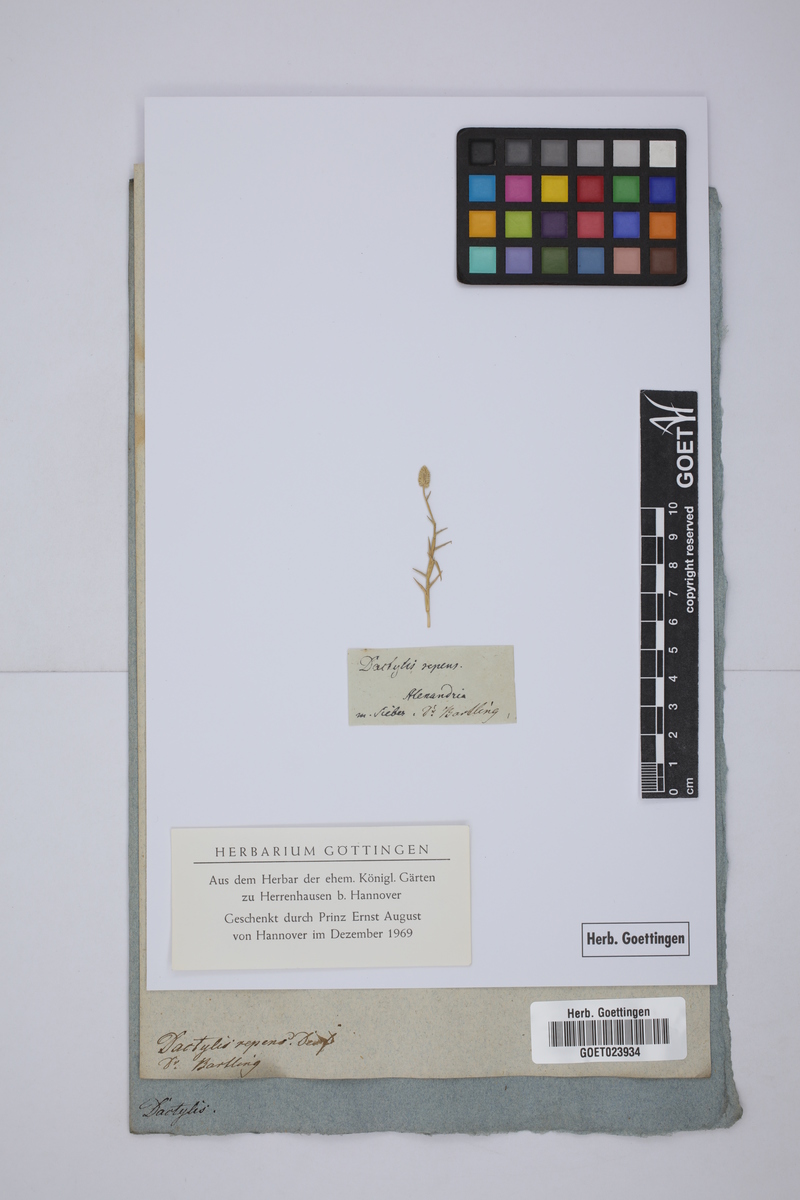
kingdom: Plantae
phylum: Tracheophyta
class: Liliopsida
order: Poales
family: Poaceae
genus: Aeluropus
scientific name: Aeluropus lagopoides
